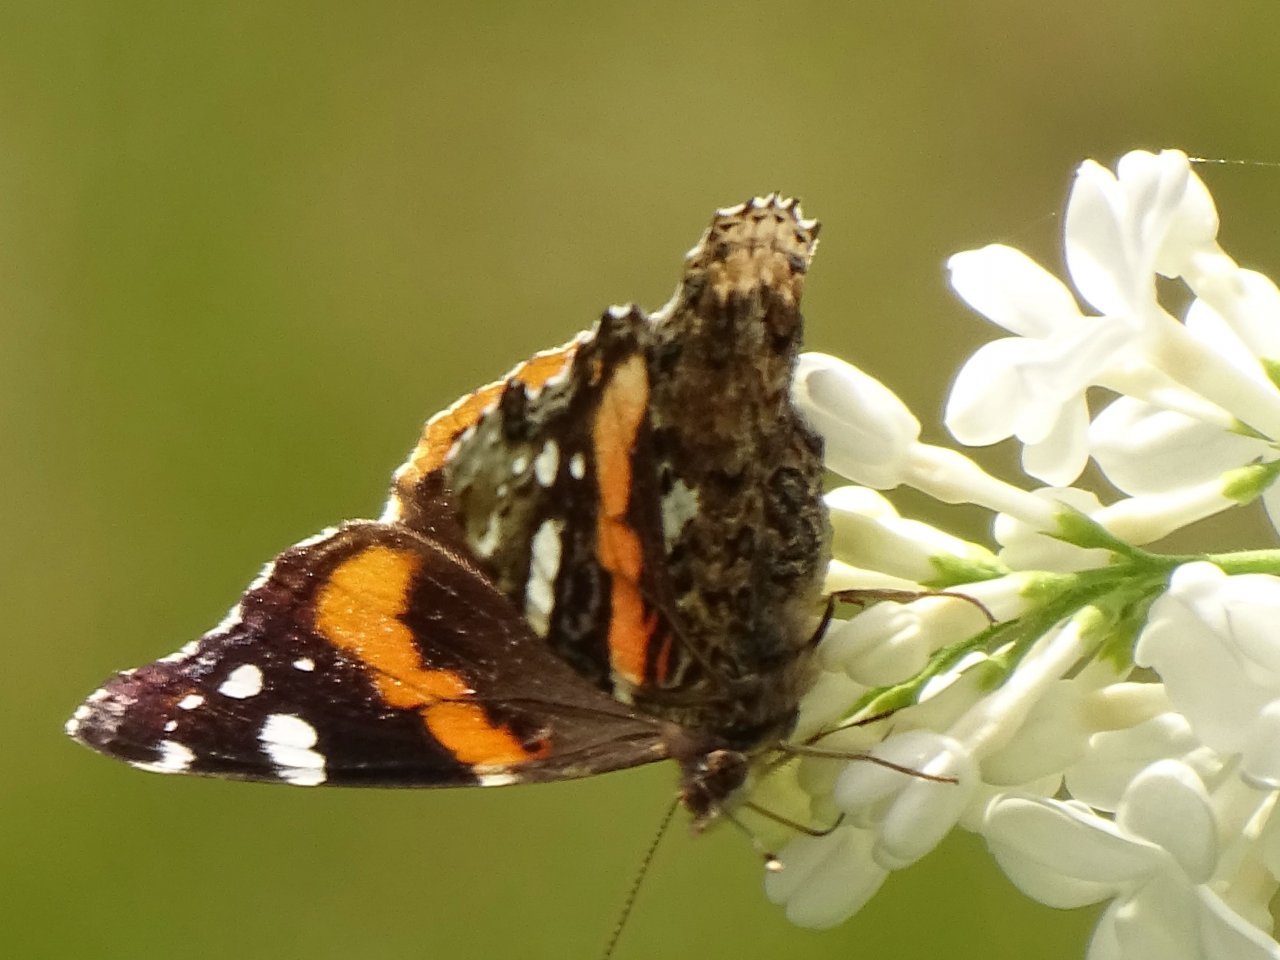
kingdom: Animalia
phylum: Arthropoda
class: Insecta
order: Lepidoptera
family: Nymphalidae
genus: Vanessa
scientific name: Vanessa atalanta
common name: Red Admiral
